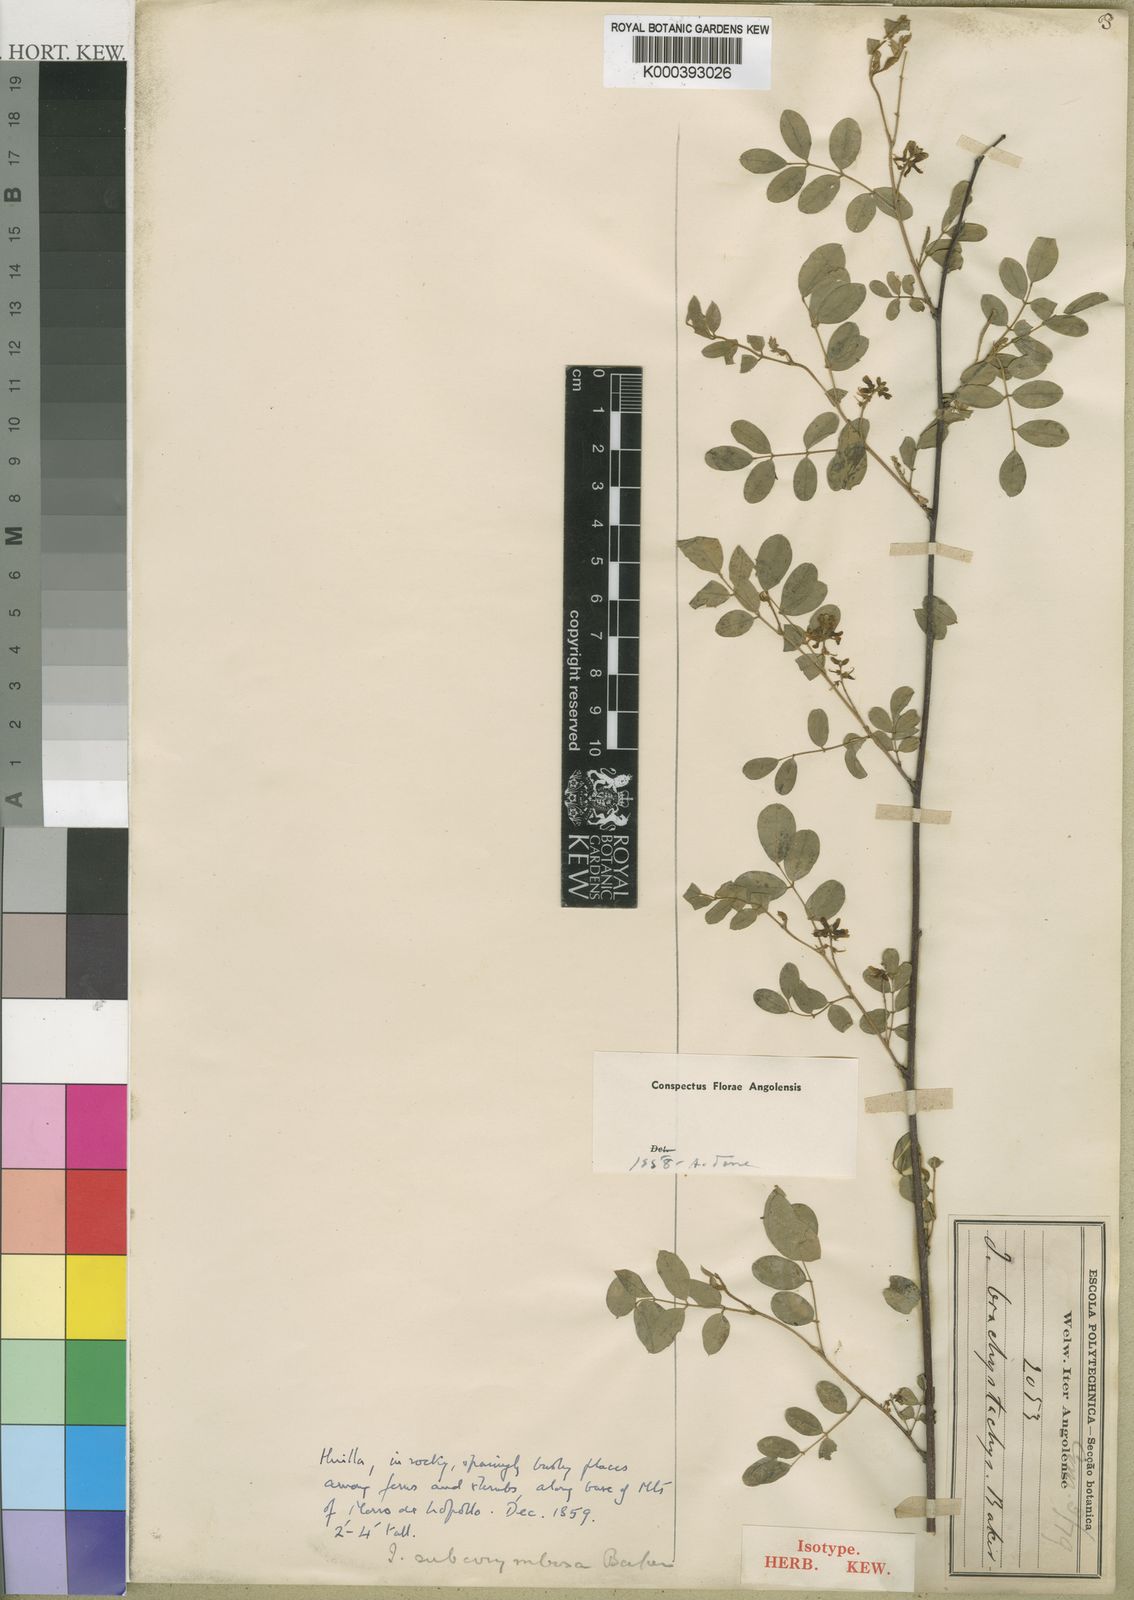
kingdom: Plantae
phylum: Tracheophyta
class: Magnoliopsida
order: Fabales
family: Fabaceae
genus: Indigofera
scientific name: Indigofera subcorymbosa
